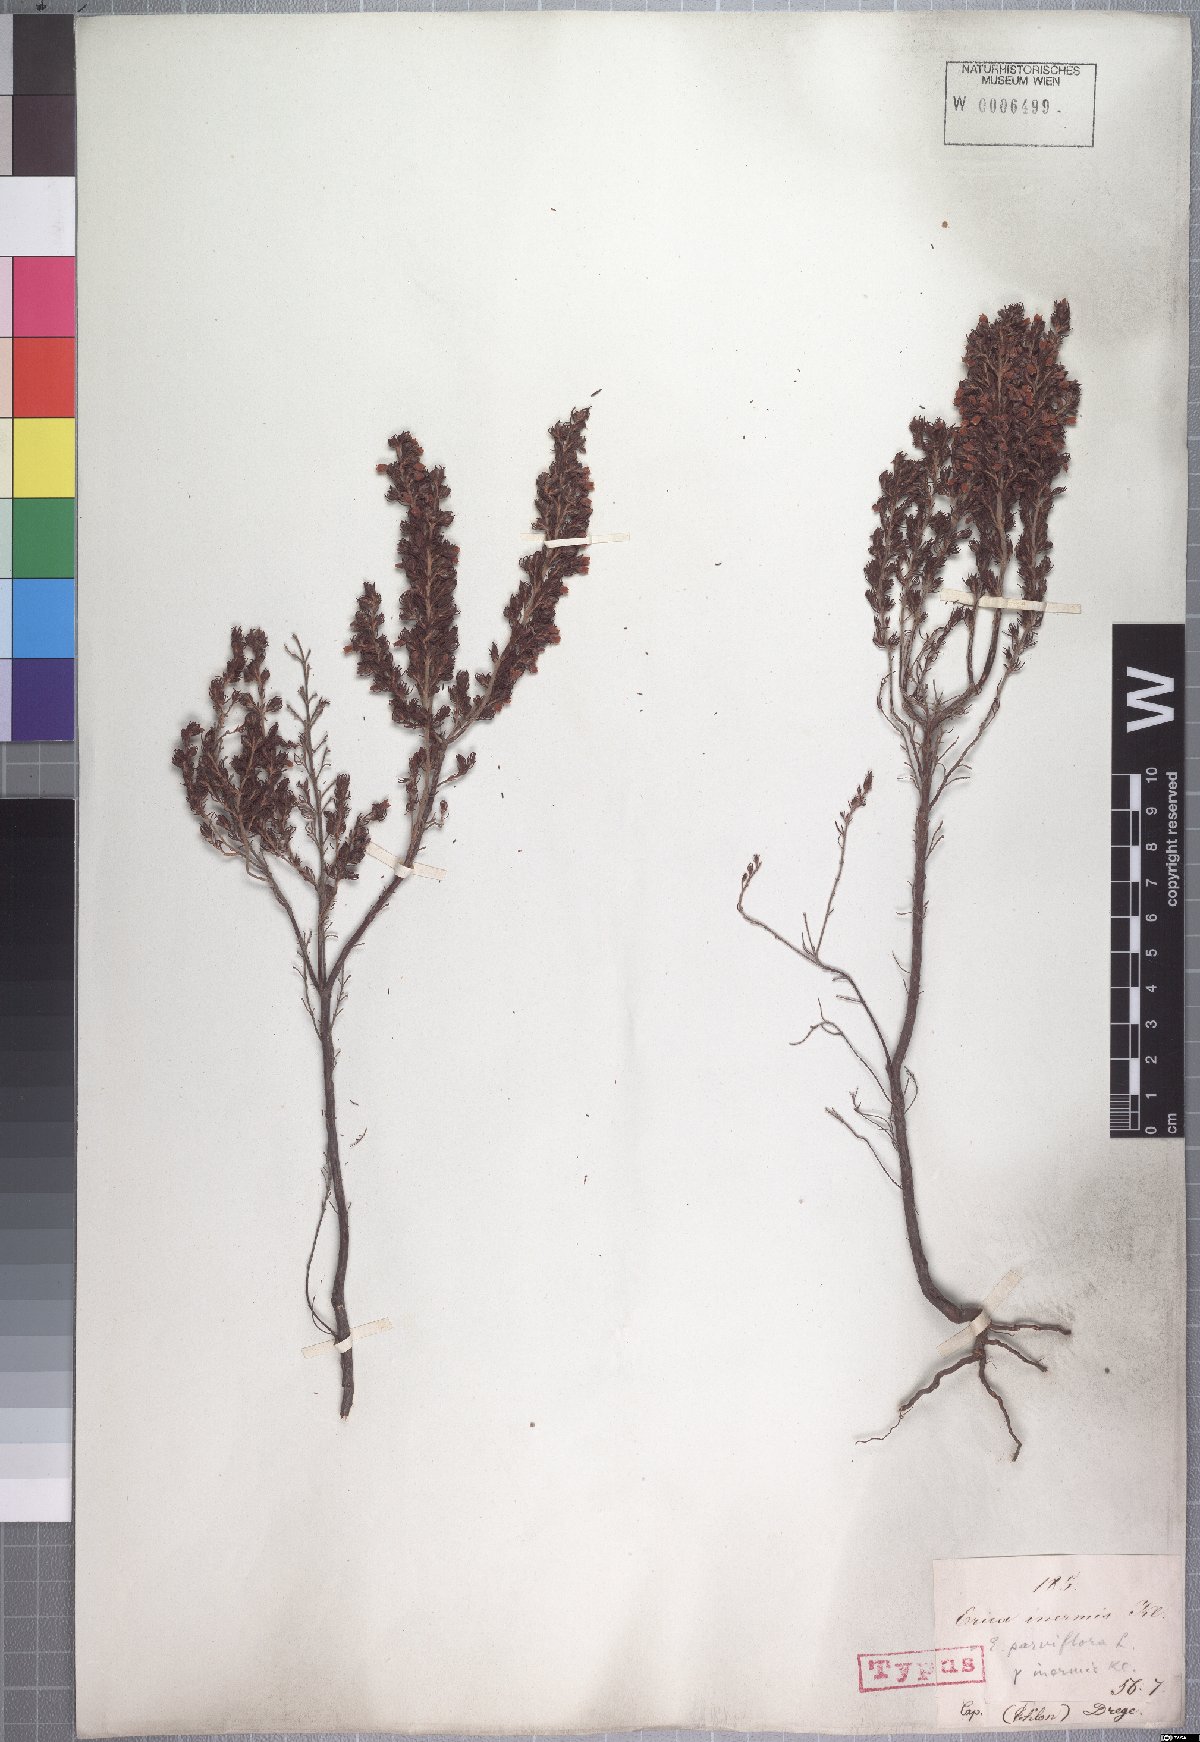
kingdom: Plantae
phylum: Tracheophyta
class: Magnoliopsida
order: Ericales
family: Ericaceae
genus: Erica
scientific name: Erica parviflora
